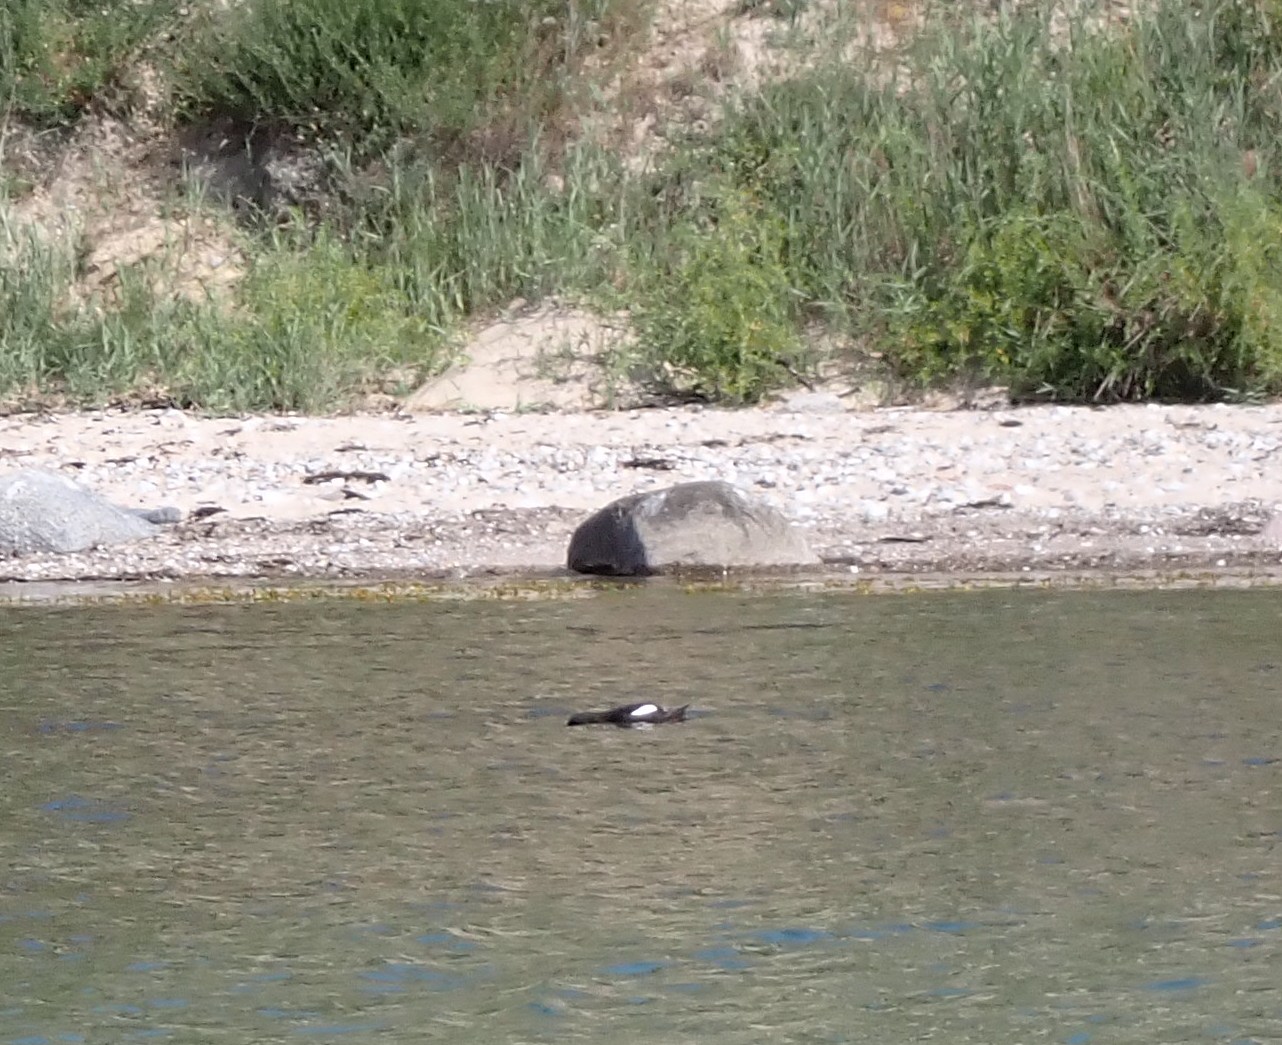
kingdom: Animalia
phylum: Chordata
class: Aves
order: Charadriiformes
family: Alcidae
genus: Cepphus
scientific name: Cepphus grylle
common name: Tejst
